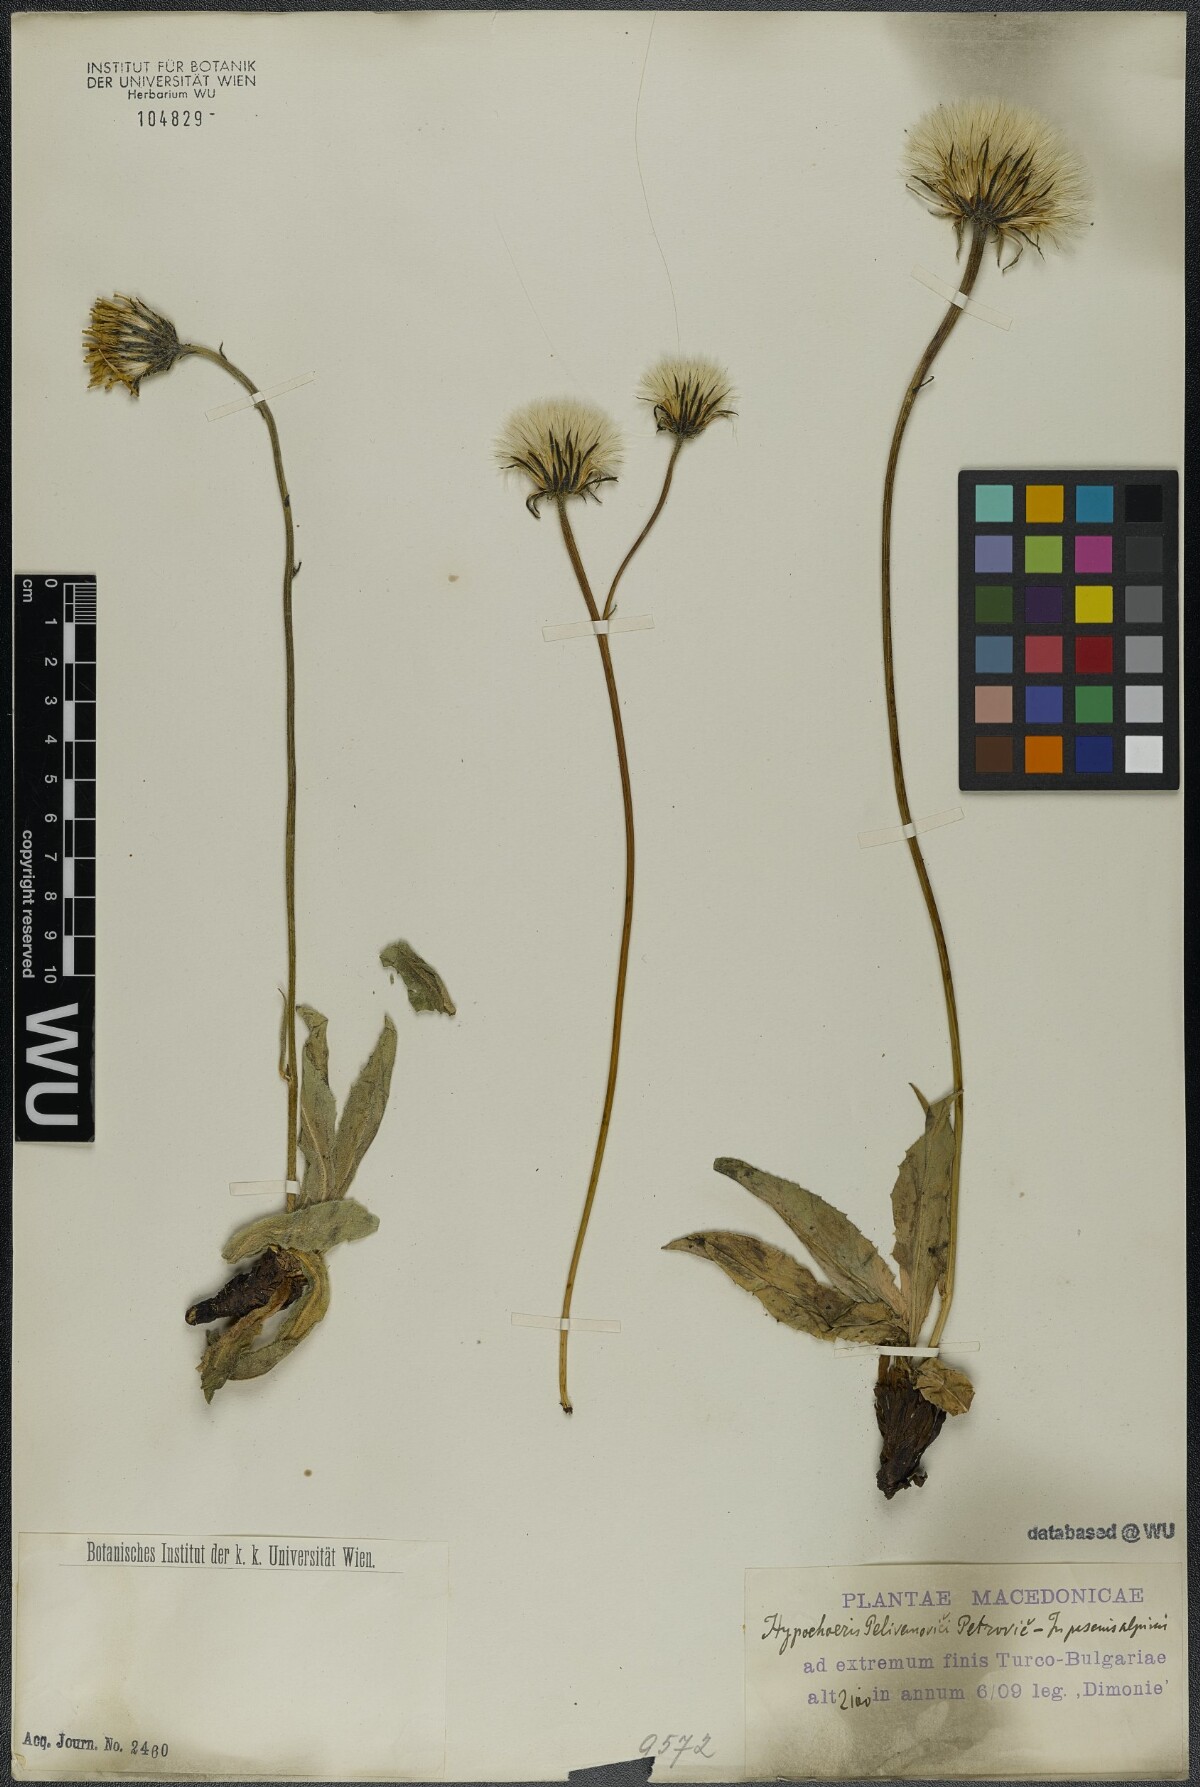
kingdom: Plantae
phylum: Tracheophyta
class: Magnoliopsida
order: Asterales
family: Asteraceae
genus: Trommsdorffia
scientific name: Trommsdorffia maculata
